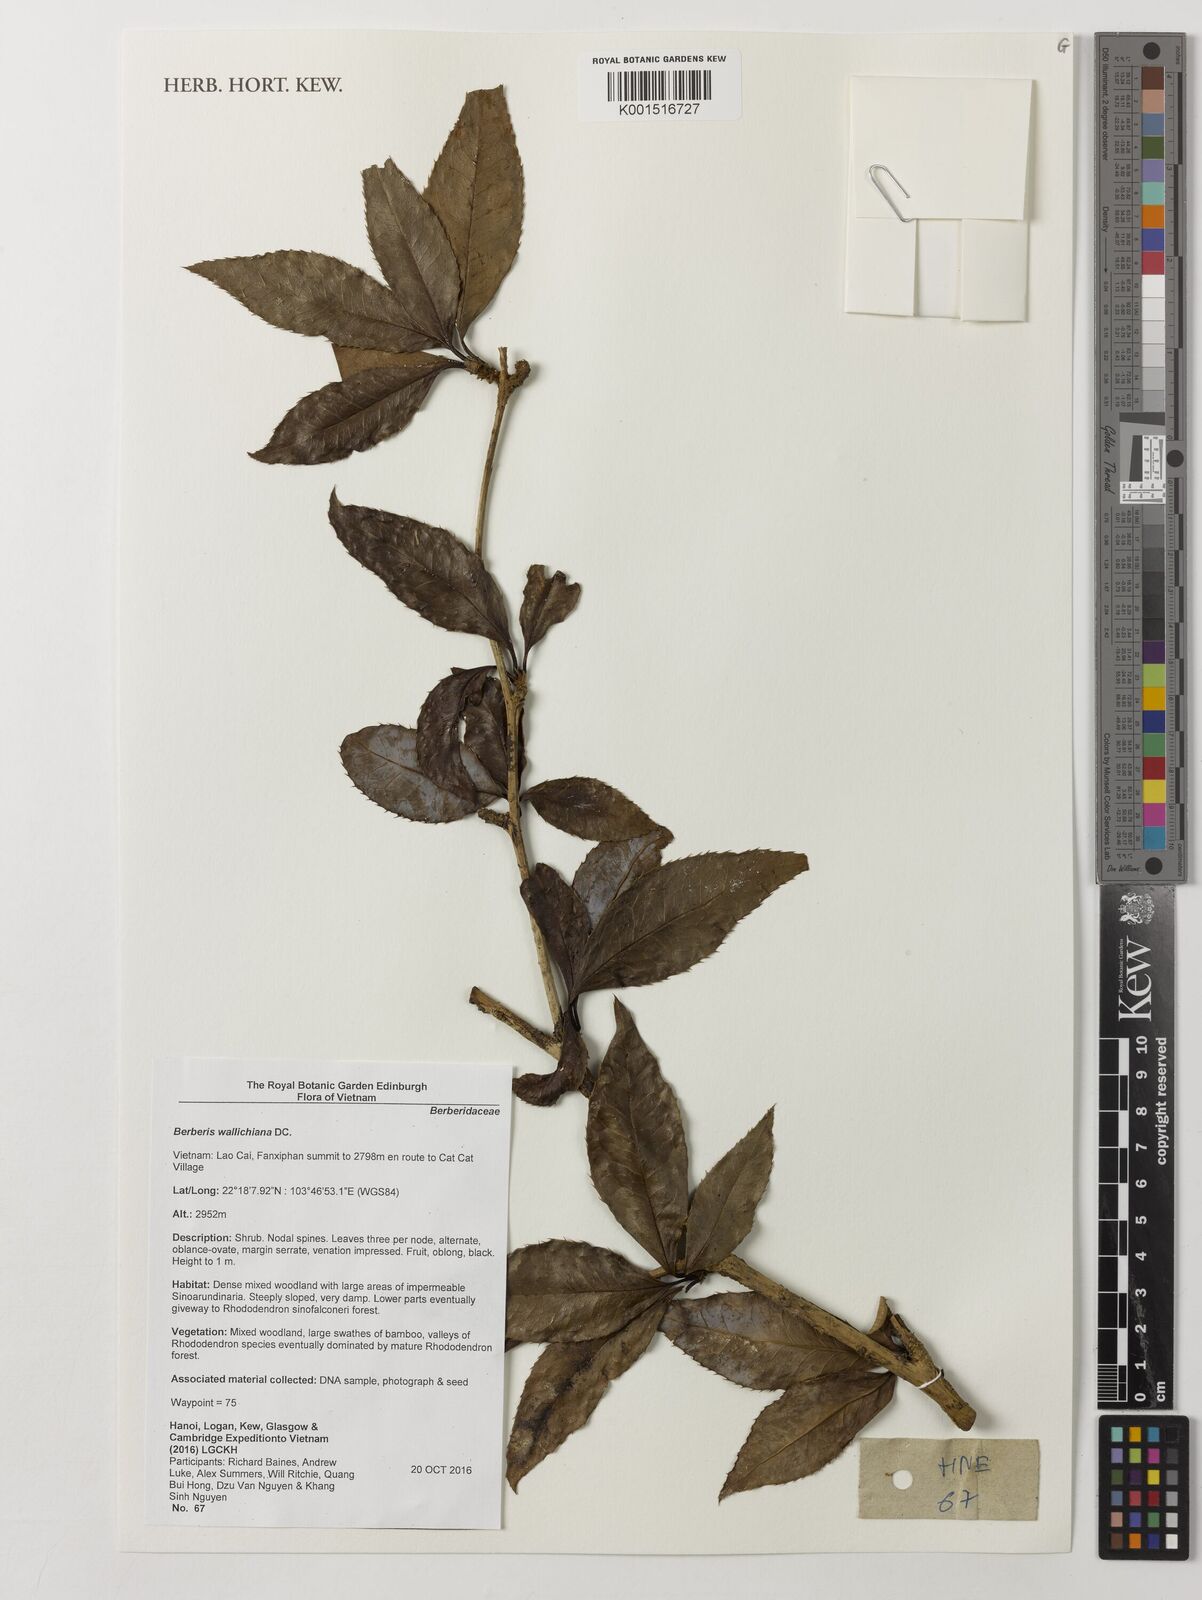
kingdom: Plantae
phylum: Tracheophyta
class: Magnoliopsida
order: Ranunculales
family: Berberidaceae
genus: Berberis
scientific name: Berberis wallichiana
